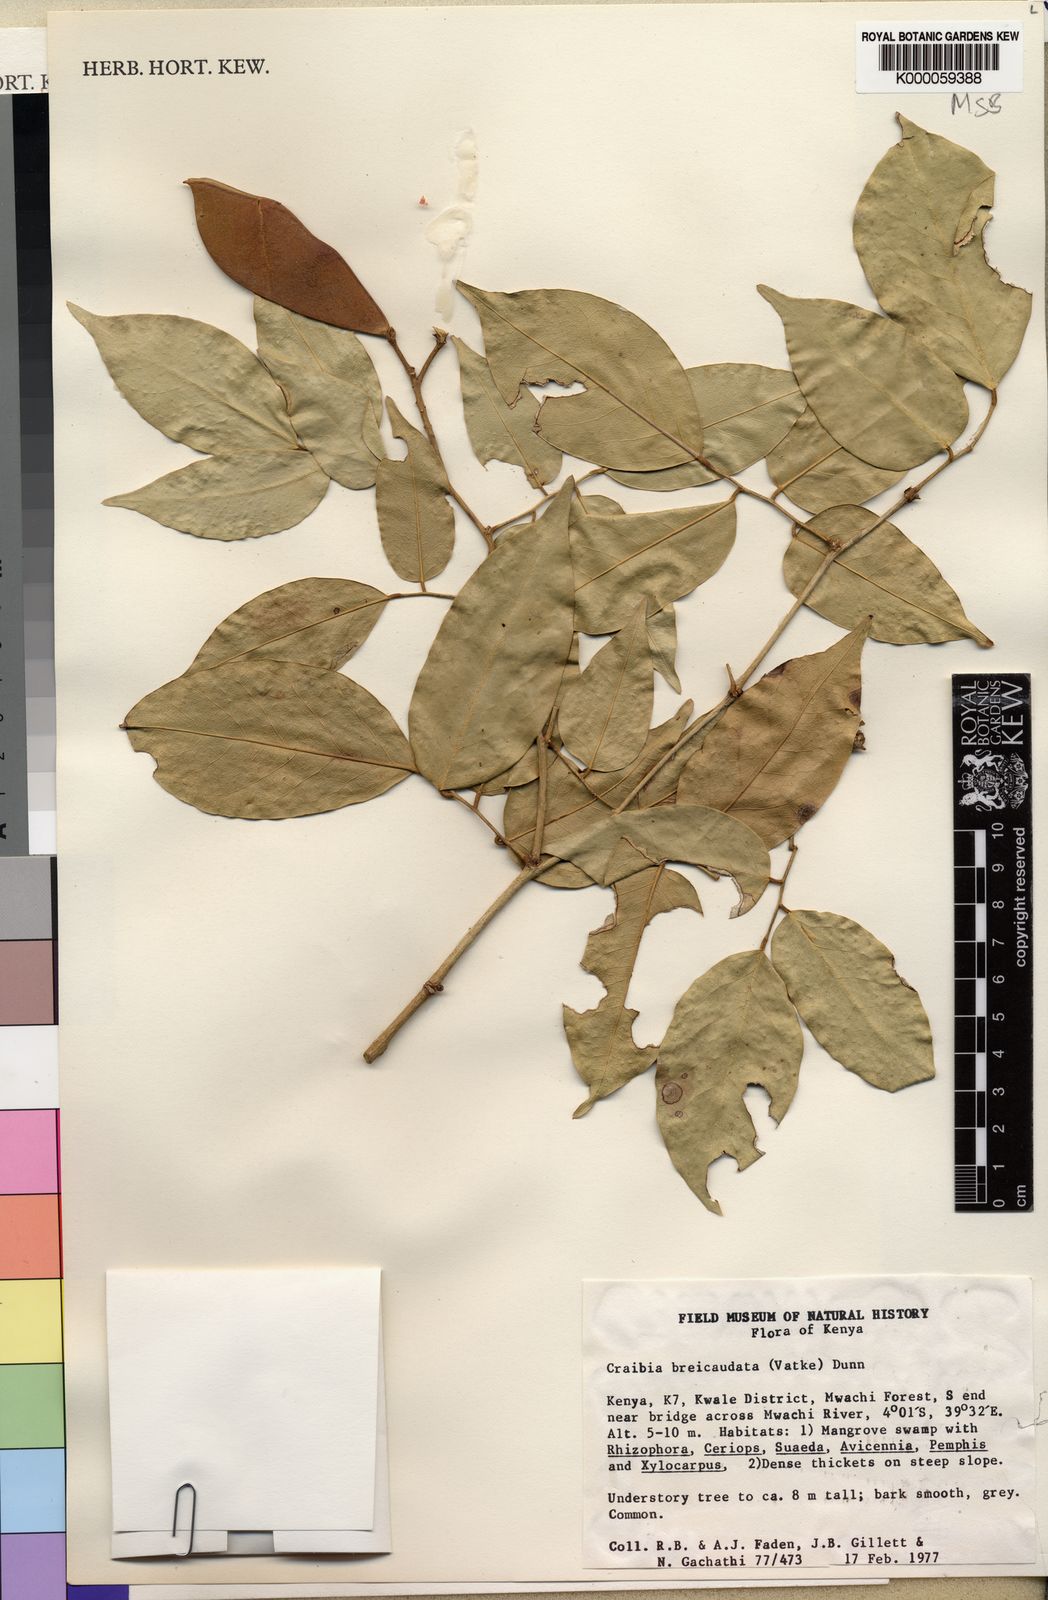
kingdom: Plantae
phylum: Tracheophyta
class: Magnoliopsida
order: Fabales
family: Fabaceae
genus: Craibia
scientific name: Craibia brevicaudata
